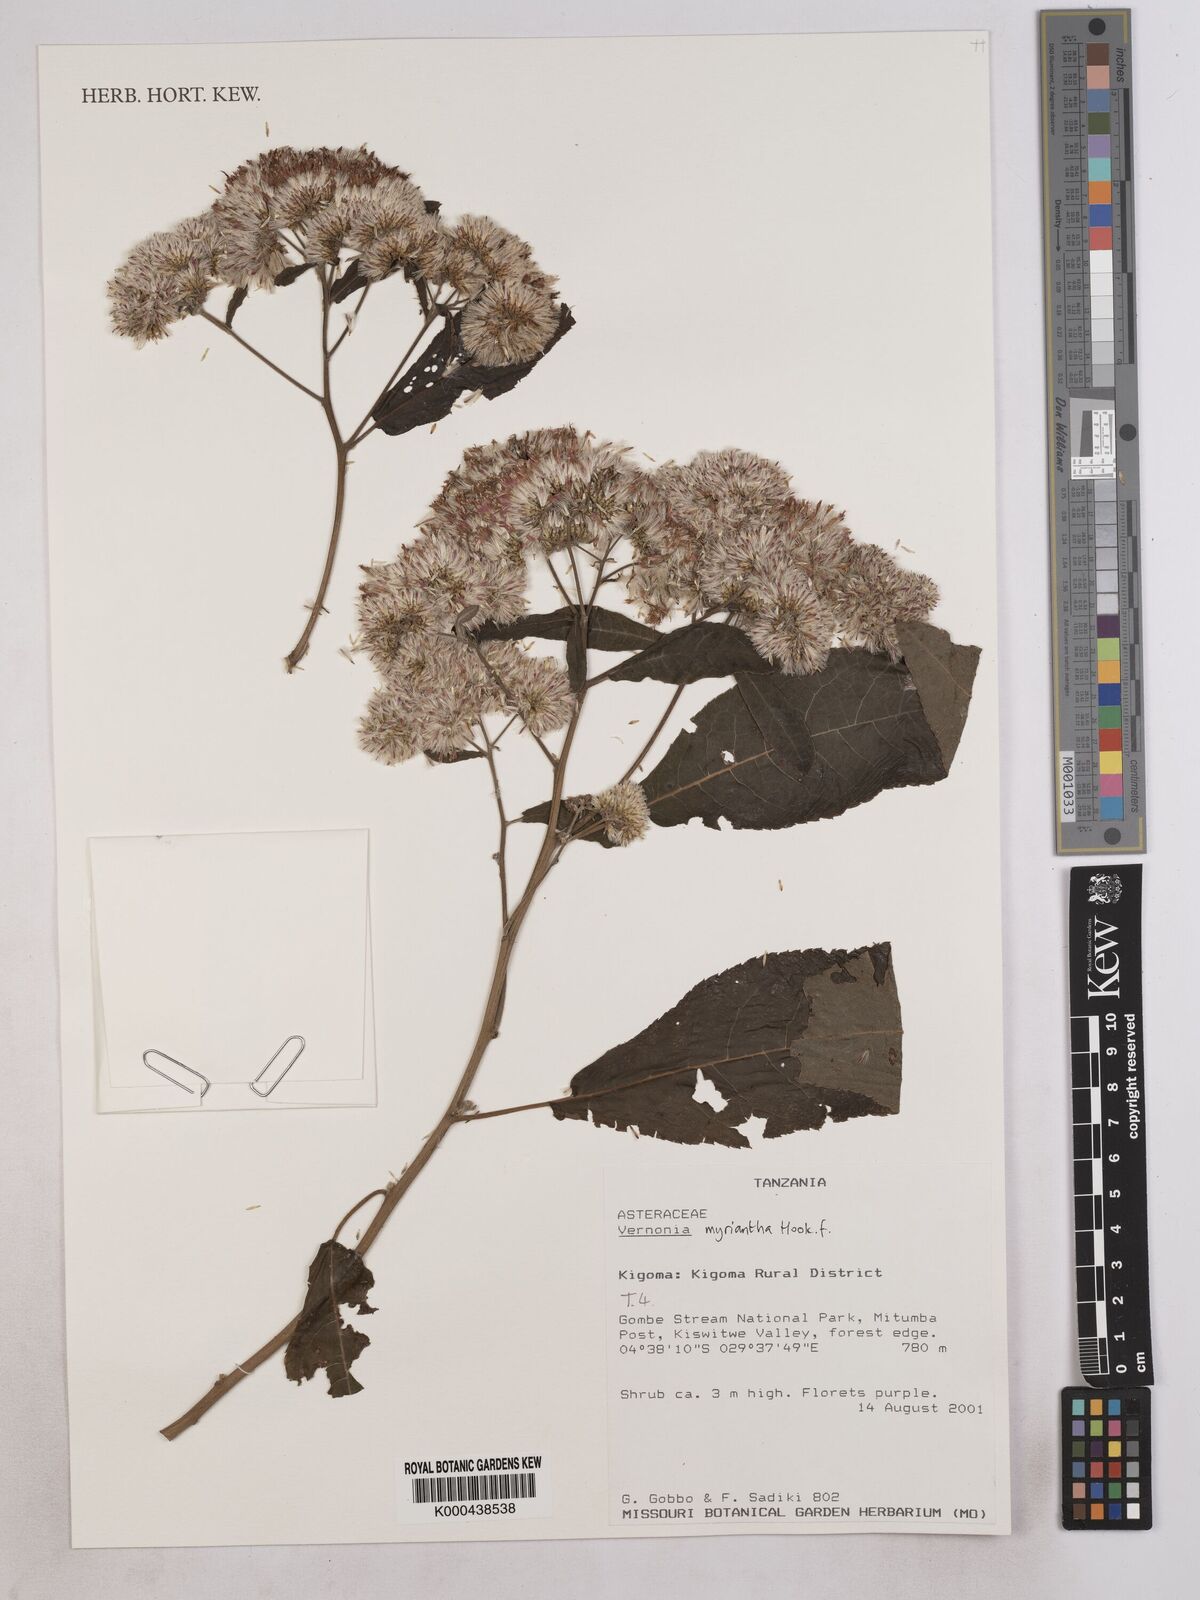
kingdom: Plantae
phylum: Tracheophyta
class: Magnoliopsida
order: Asterales
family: Asteraceae
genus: Gymnanthemum
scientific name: Gymnanthemum myrianthum
